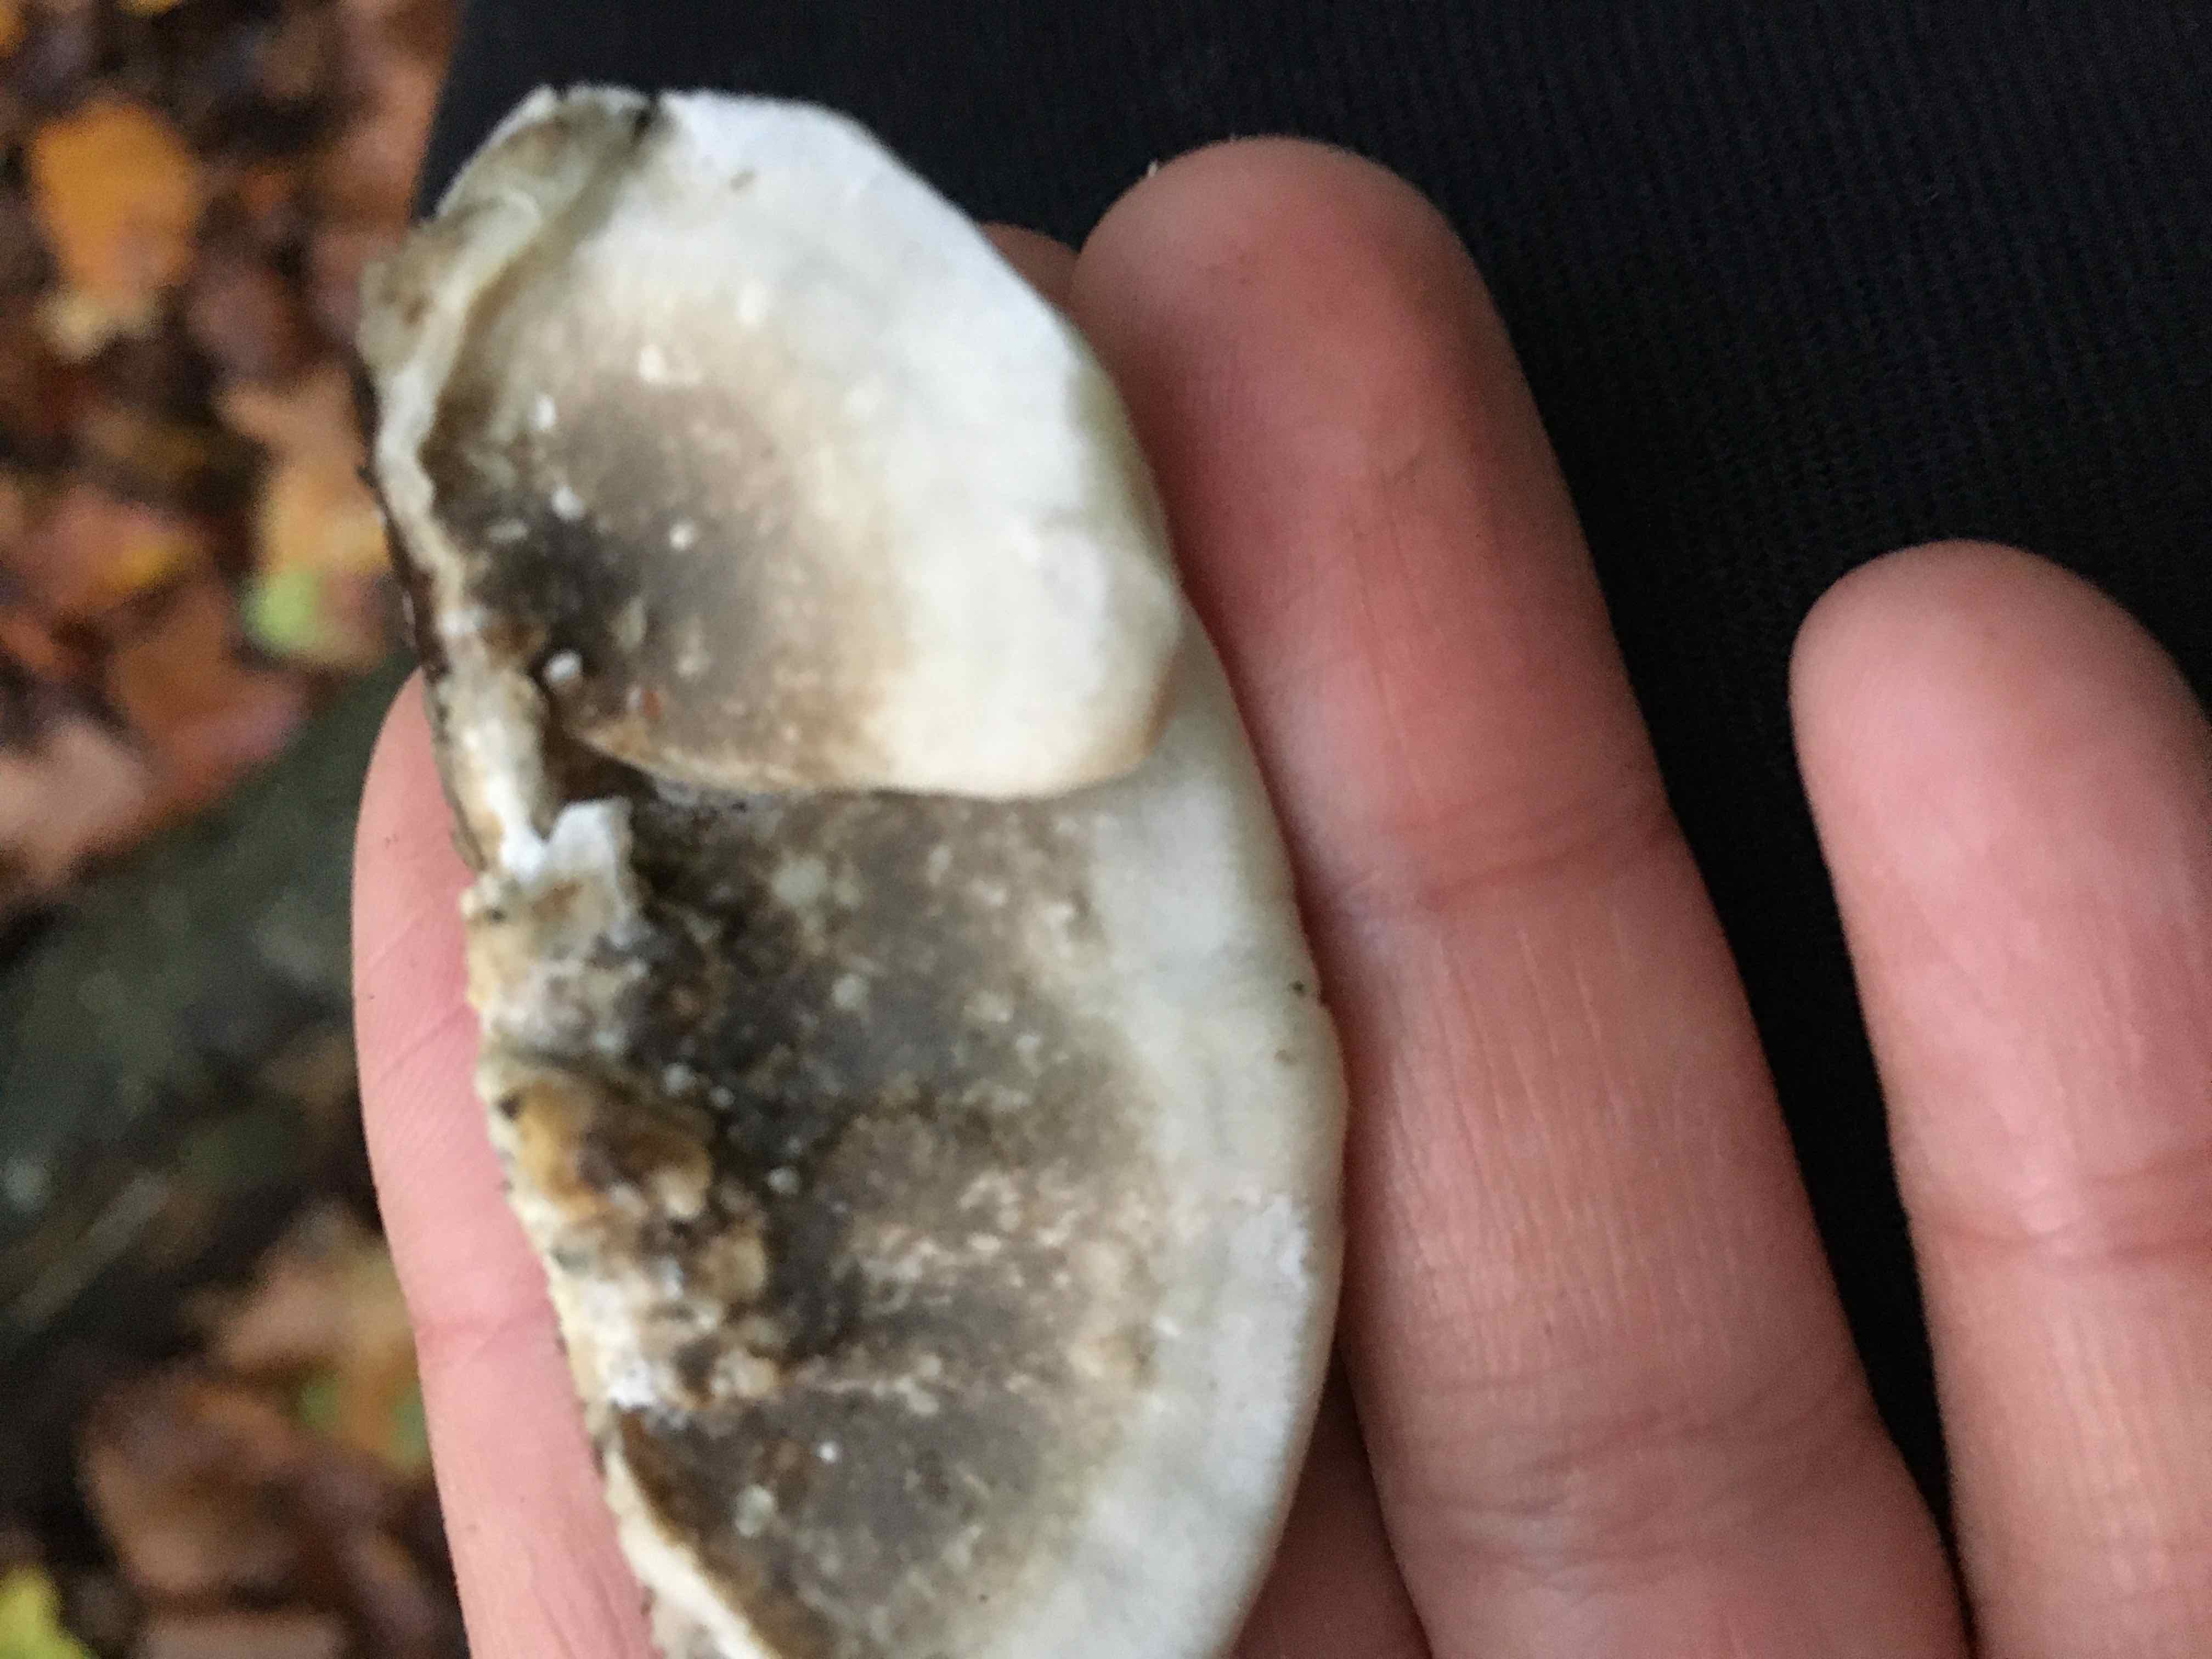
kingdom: Fungi
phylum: Basidiomycota
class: Agaricomycetes
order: Polyporales
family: Phanerochaetaceae
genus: Bjerkandera
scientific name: Bjerkandera adusta
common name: sveden sodporesvamp
